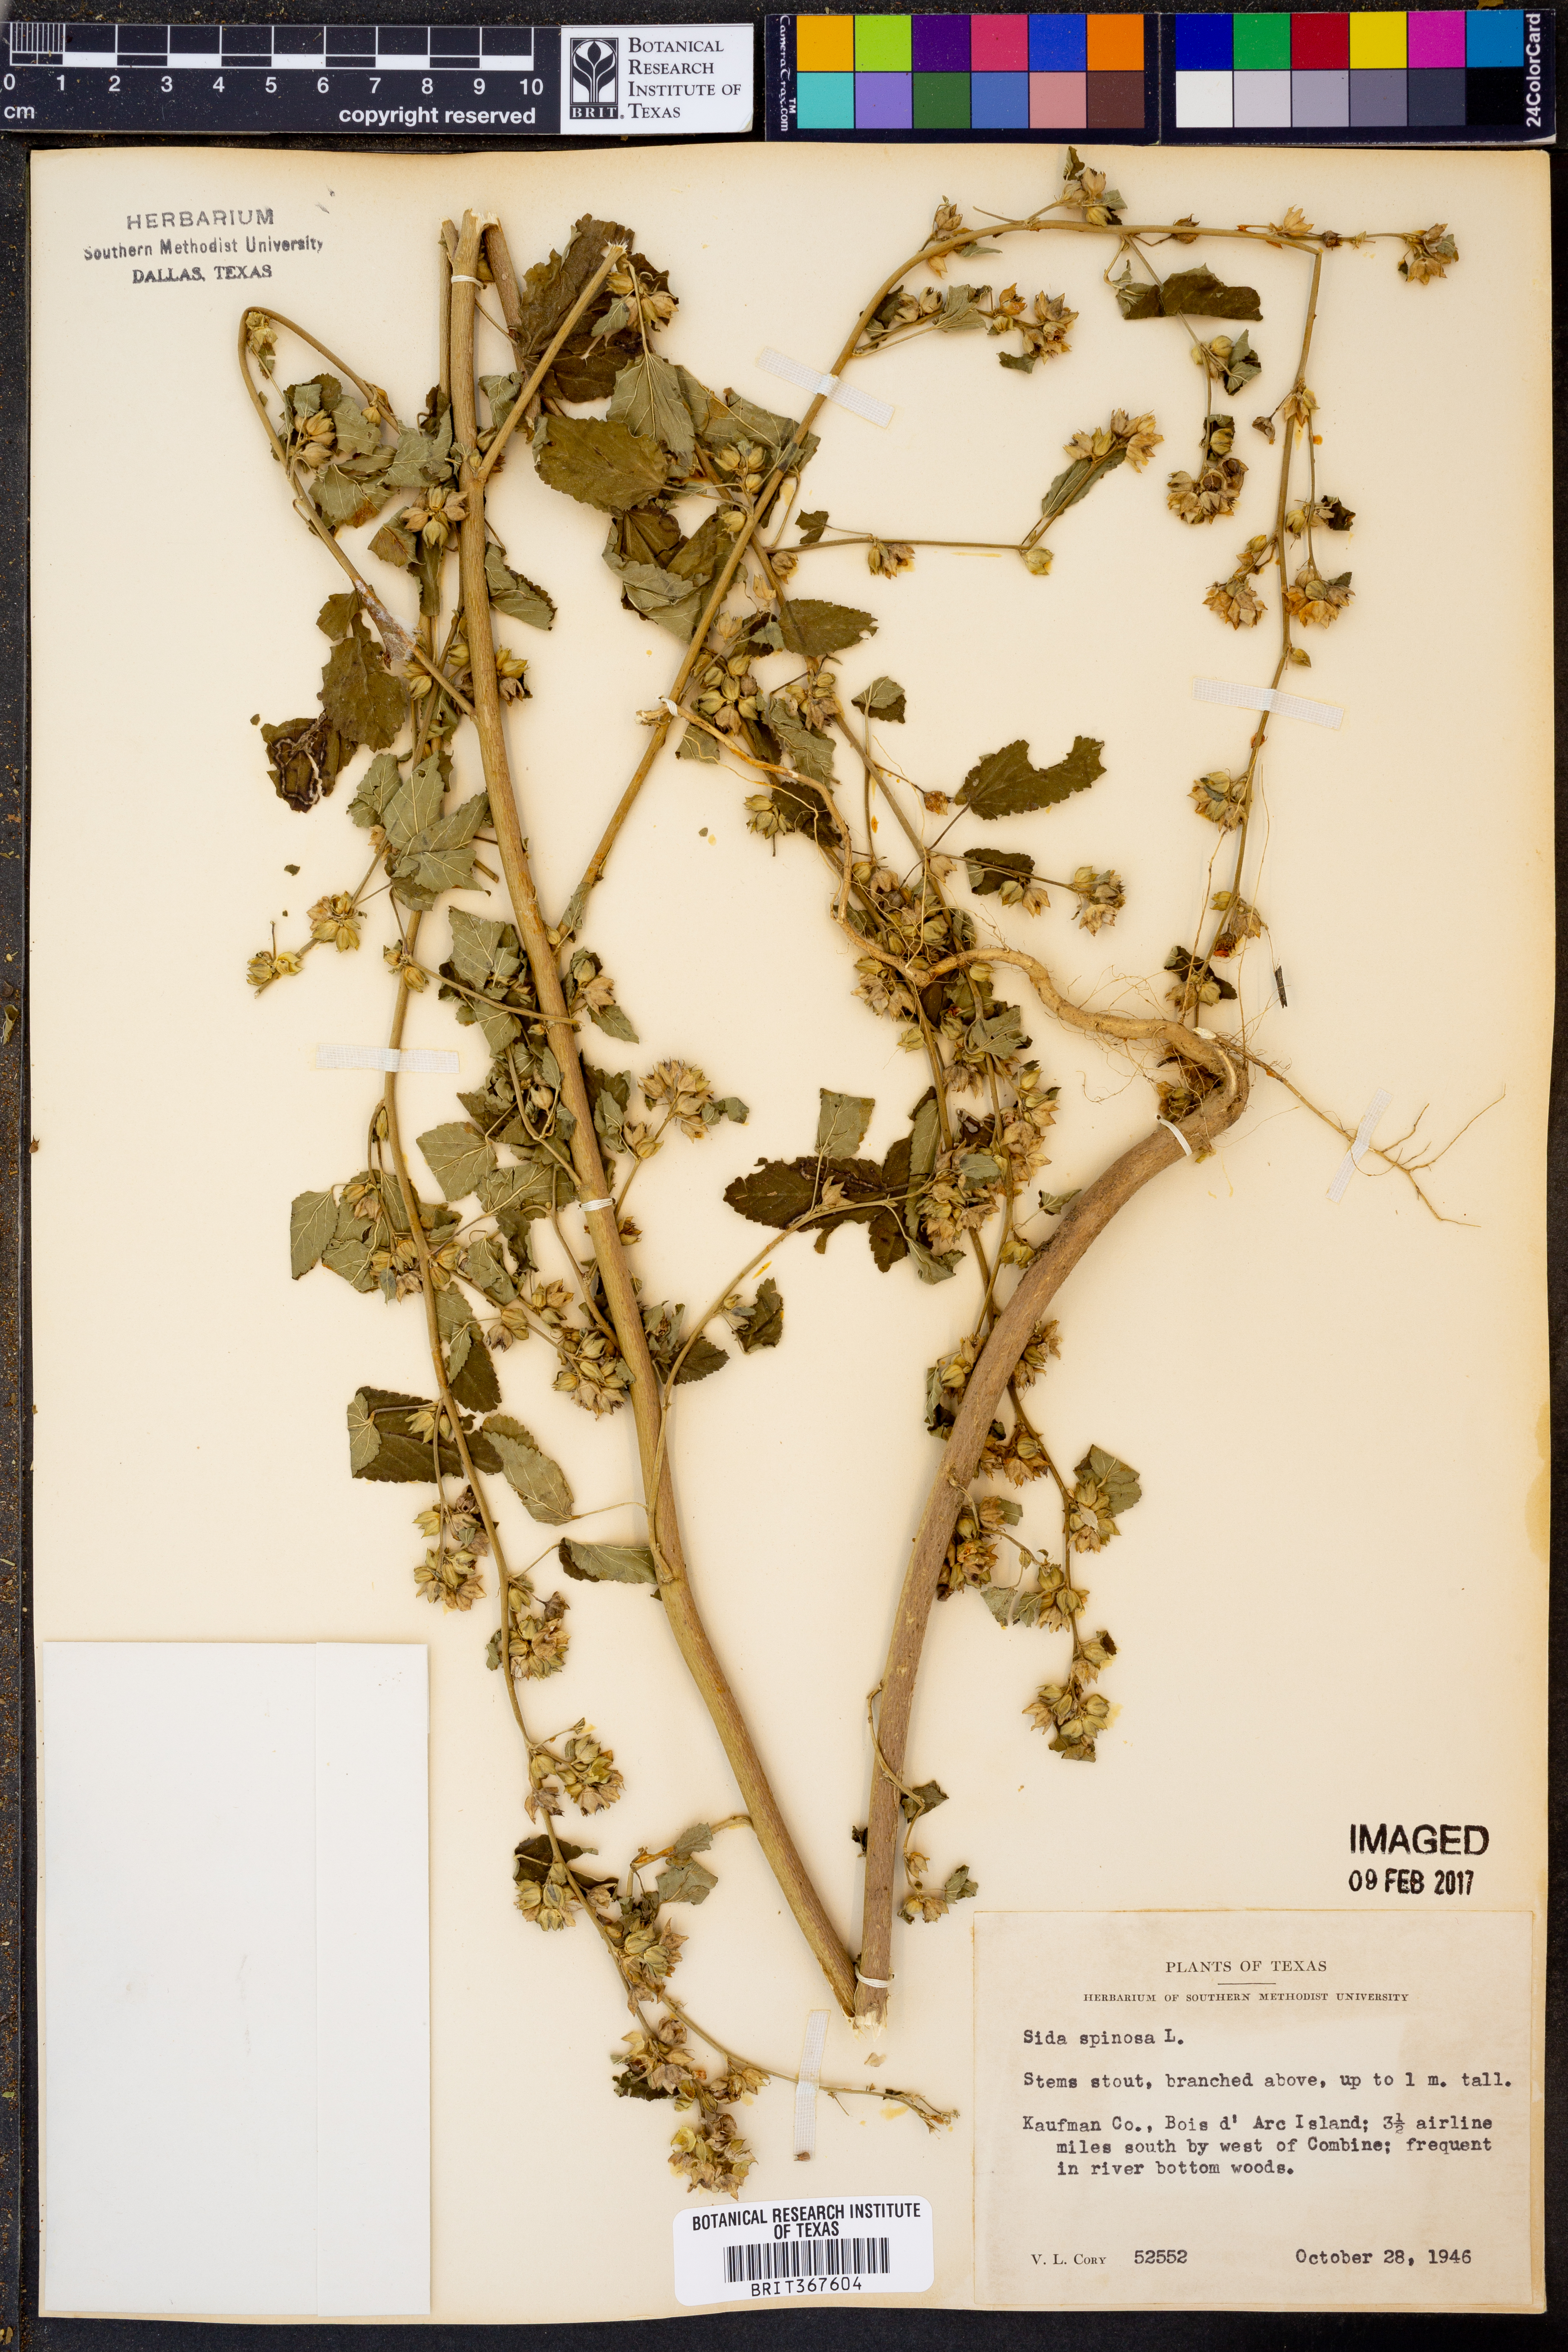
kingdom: Plantae
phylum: Tracheophyta
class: Magnoliopsida
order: Malvales
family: Malvaceae
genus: Sida
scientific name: Sida spinosa
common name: Prickly fanpetals
